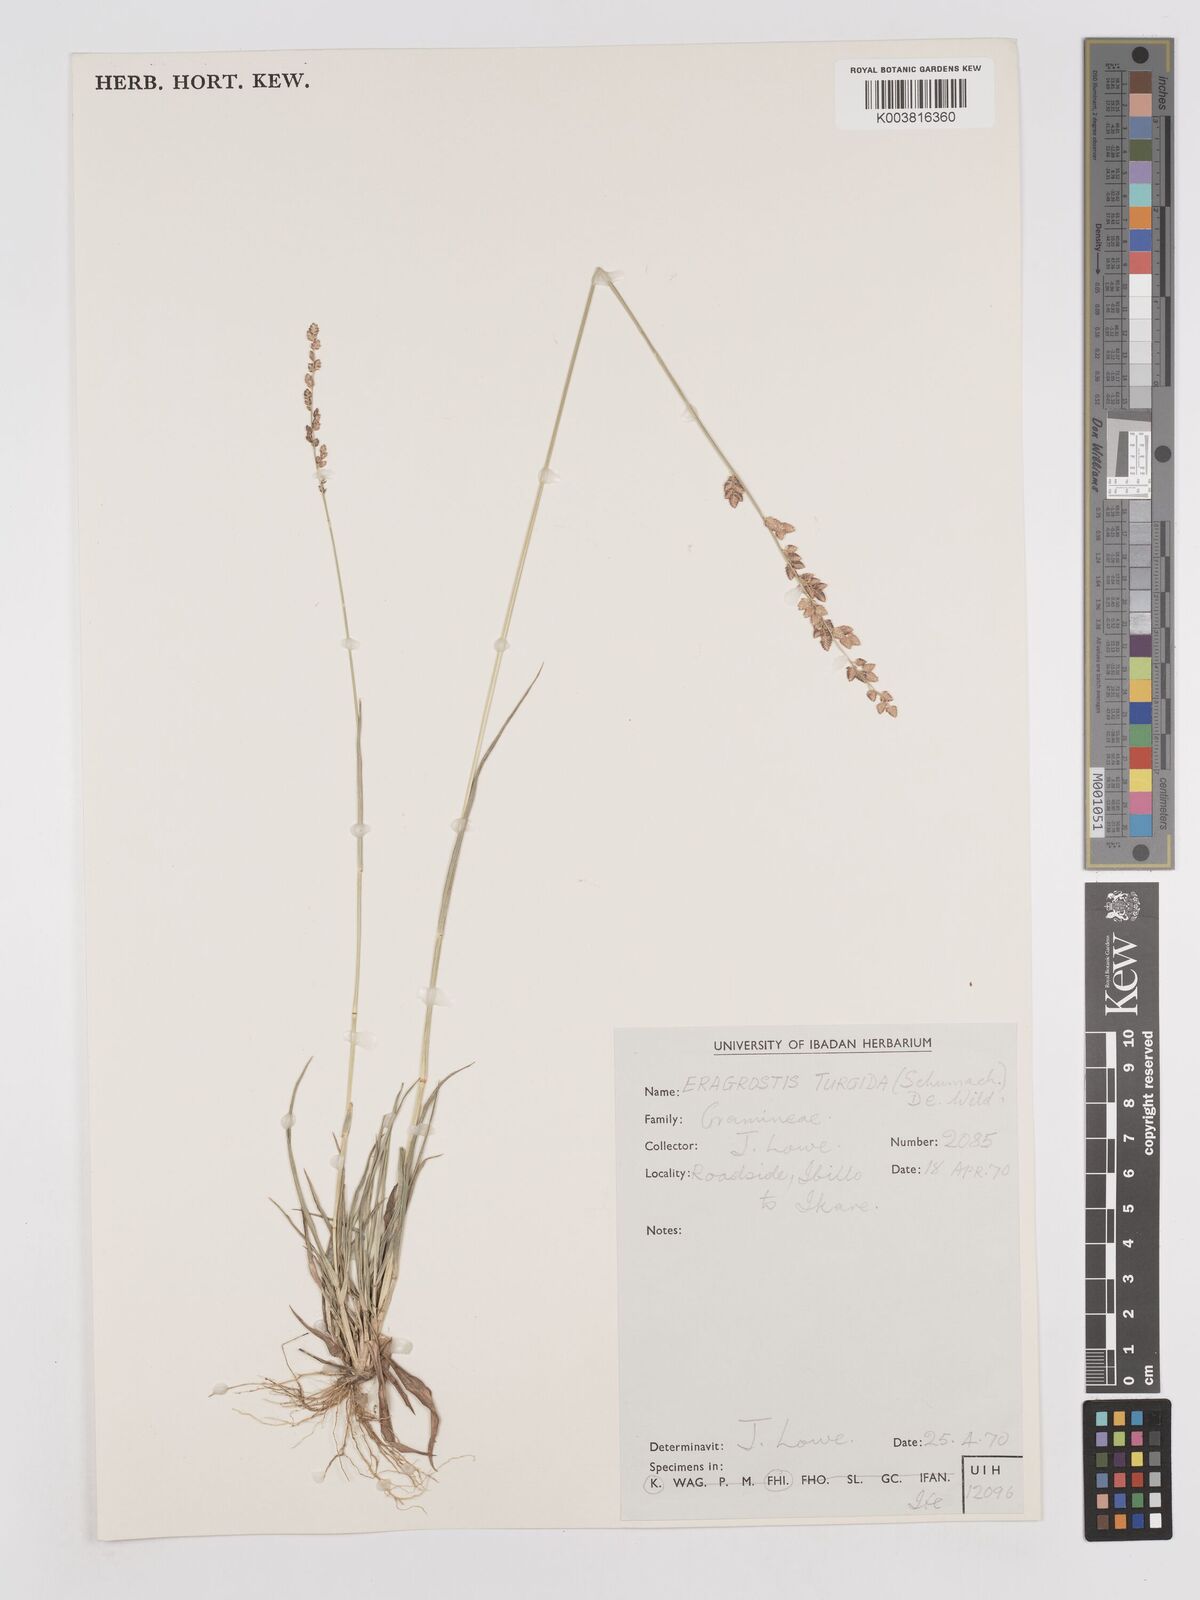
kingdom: Plantae
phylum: Tracheophyta
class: Liliopsida
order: Poales
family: Poaceae
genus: Eragrostis
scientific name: Eragrostis turgida
